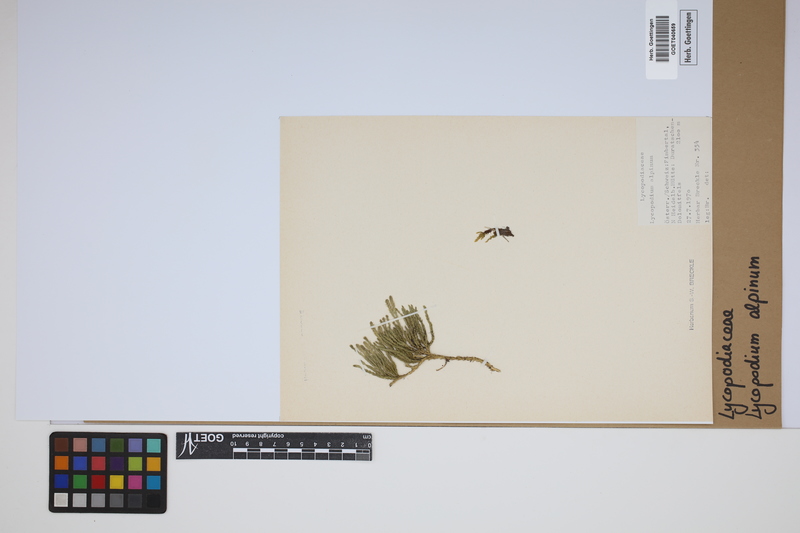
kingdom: Plantae
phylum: Tracheophyta
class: Lycopodiopsida
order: Lycopodiales
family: Lycopodiaceae
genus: Diphasiastrum
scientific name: Diphasiastrum alpinum
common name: Alpine clubmoss
